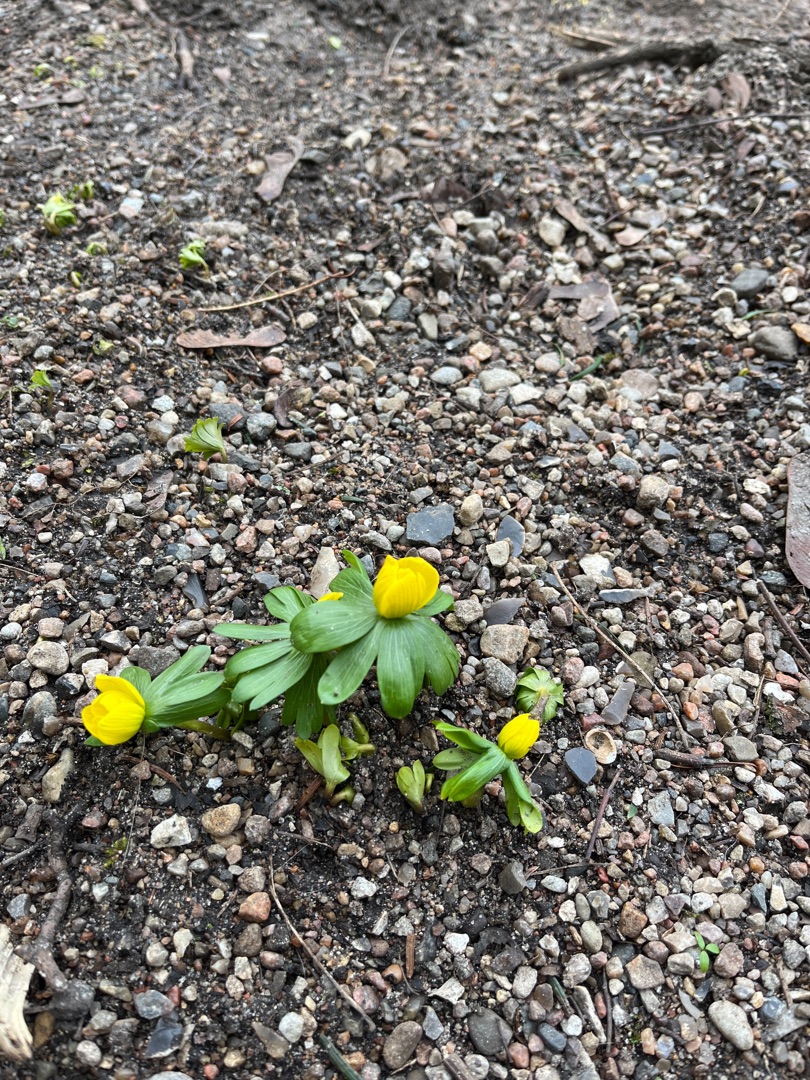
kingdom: Plantae
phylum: Tracheophyta
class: Magnoliopsida
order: Ranunculales
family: Ranunculaceae
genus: Eranthis
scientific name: Eranthis hyemalis
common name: Erantis
